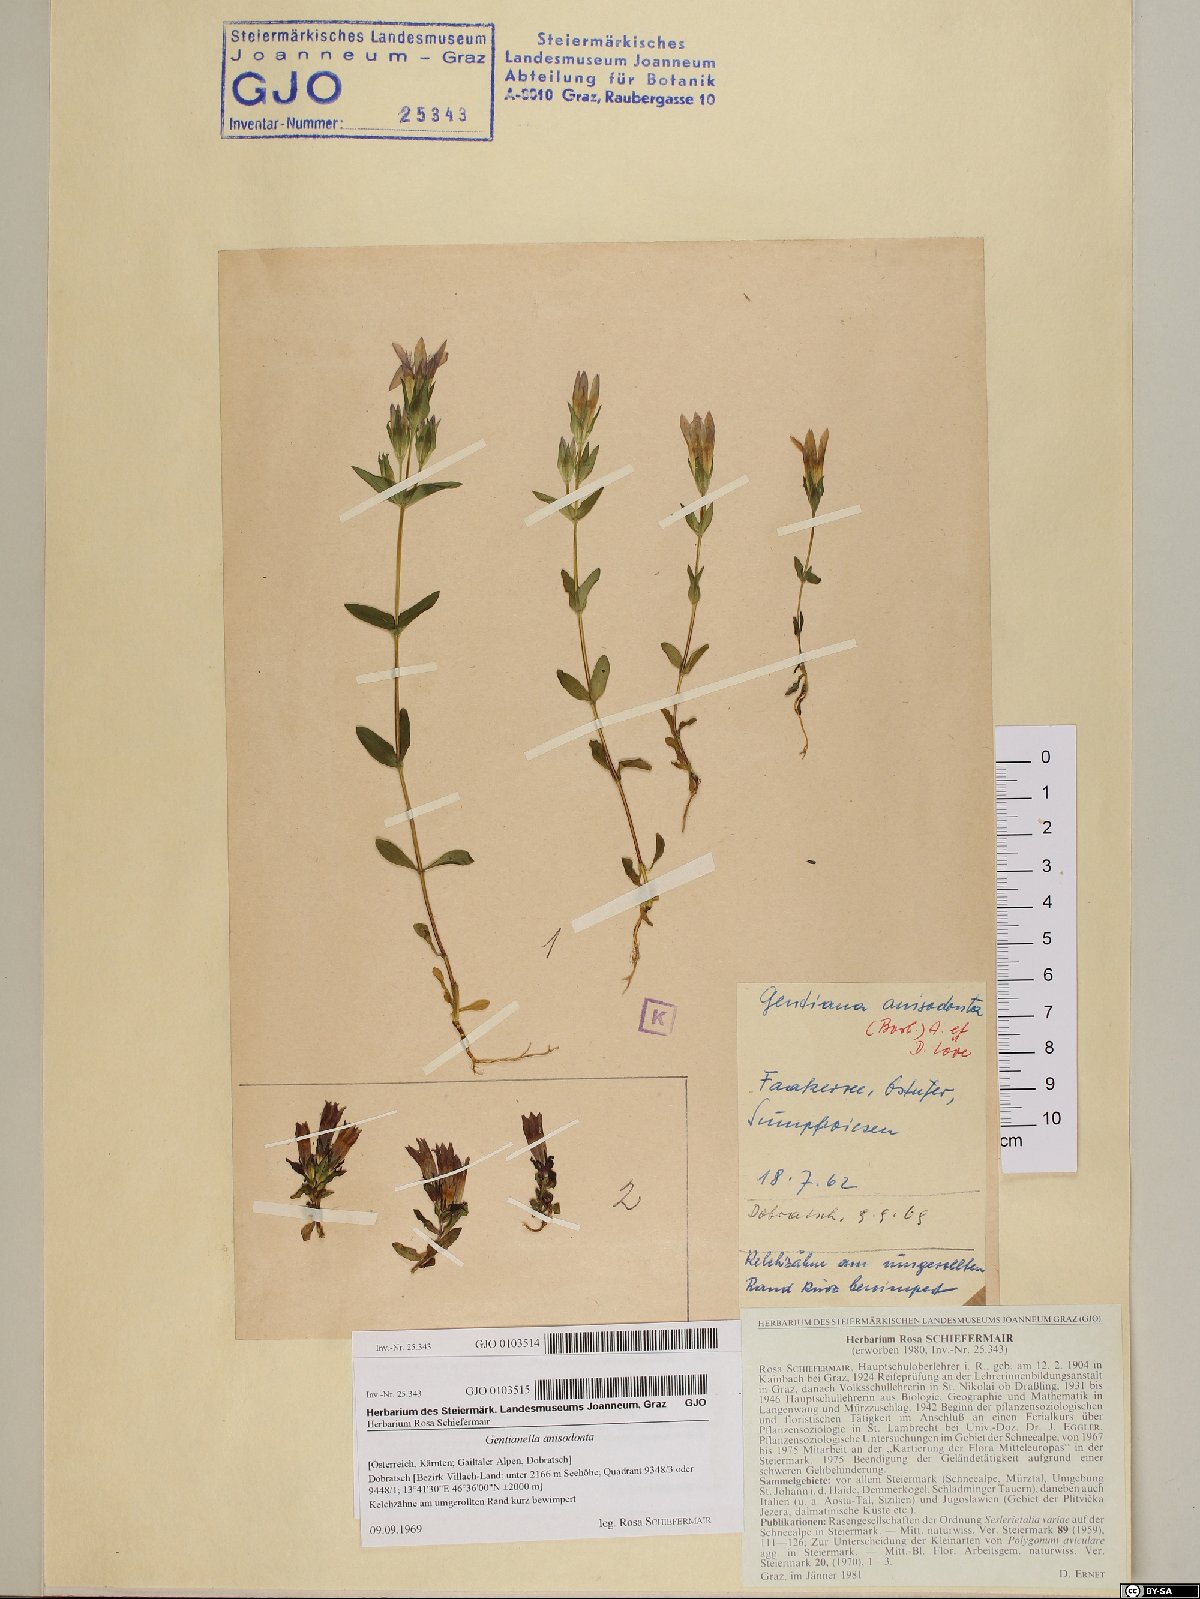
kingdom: Plantae
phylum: Tracheophyta
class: Magnoliopsida
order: Gentianales
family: Gentianaceae
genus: Gentianella
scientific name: Gentianella anisodonta
